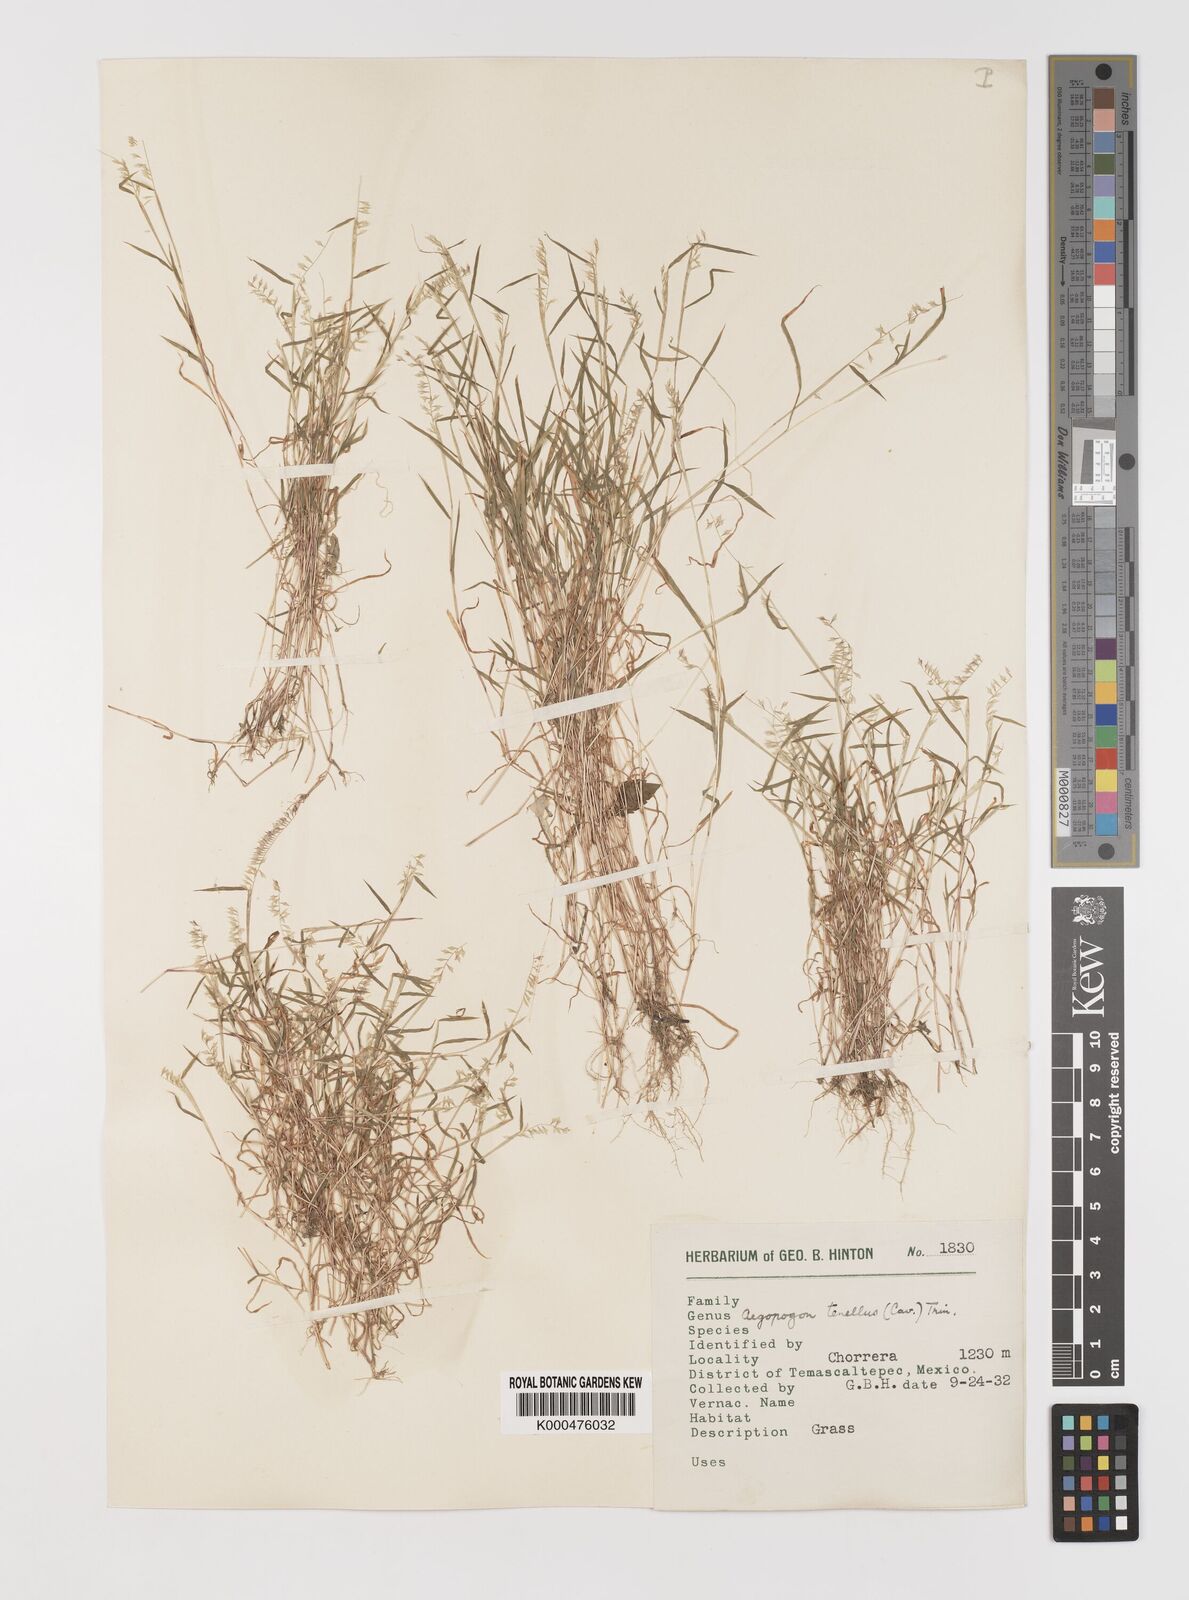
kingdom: Plantae
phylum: Tracheophyta
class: Liliopsida
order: Poales
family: Poaceae
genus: Muhlenbergia
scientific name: Muhlenbergia uniseta
